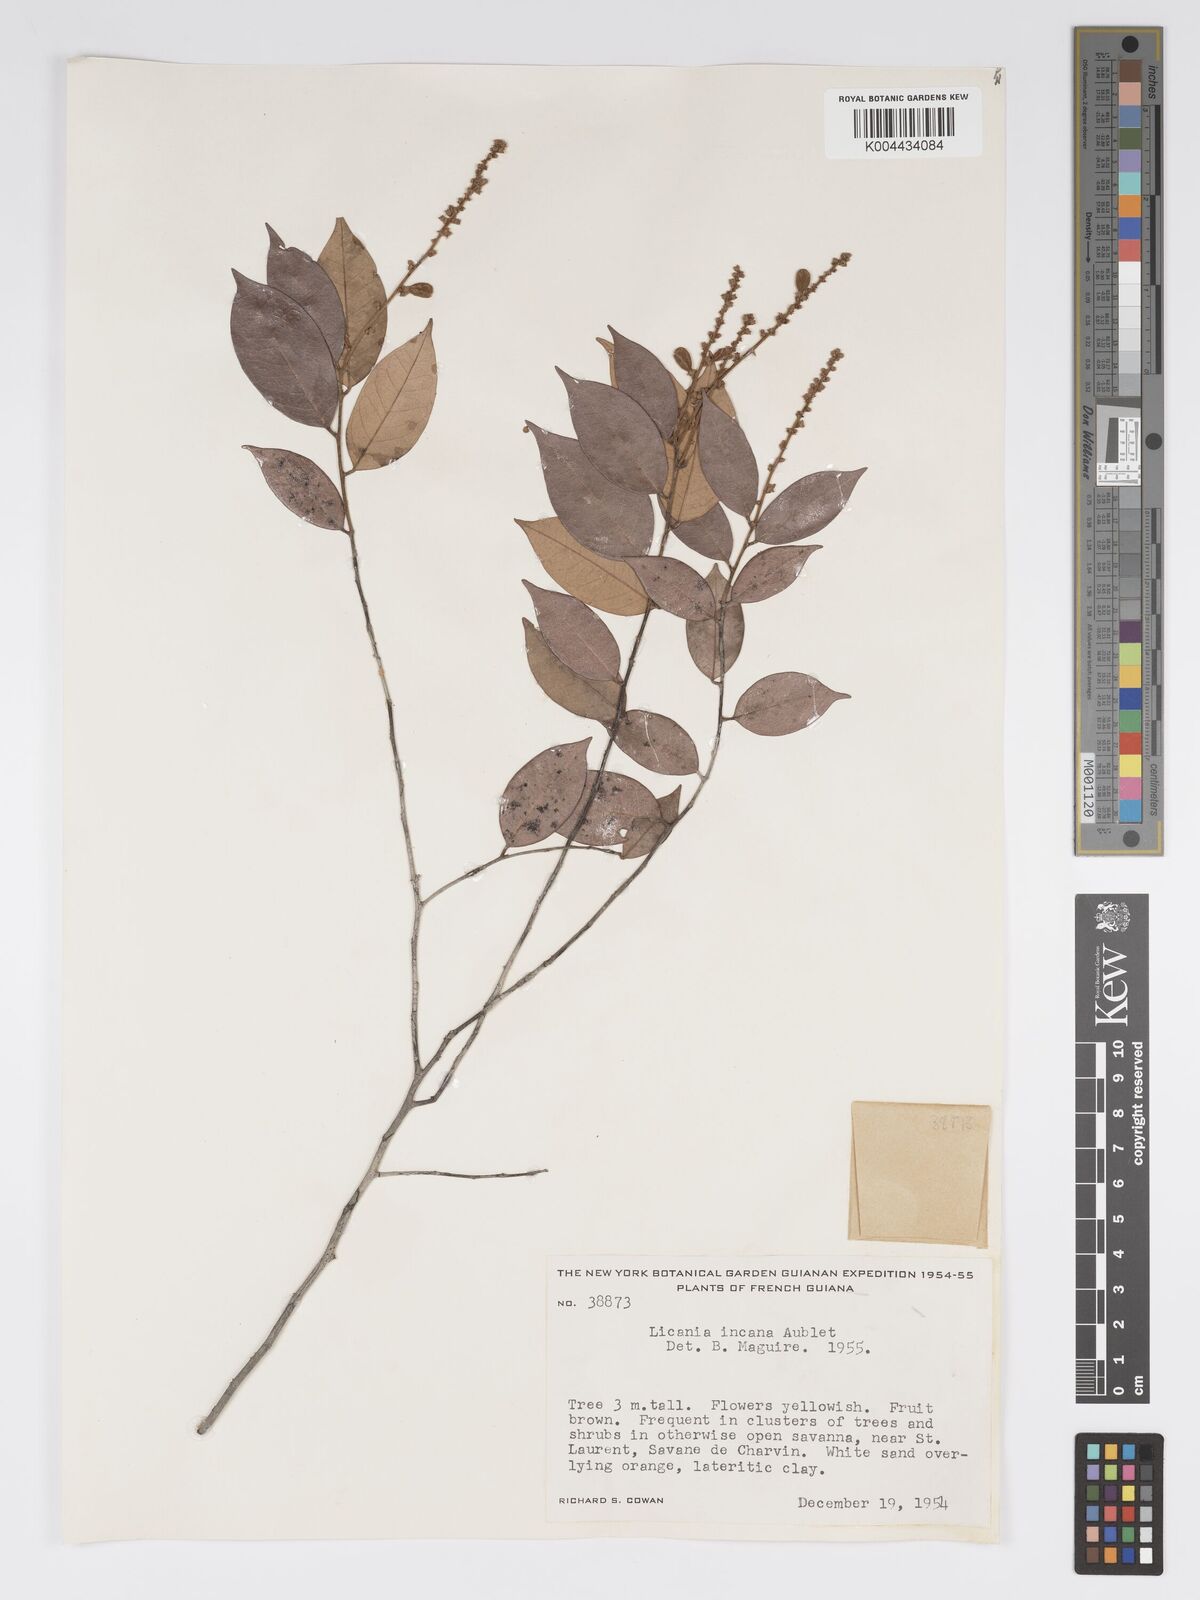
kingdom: Plantae
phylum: Tracheophyta
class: Magnoliopsida
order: Malpighiales
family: Chrysobalanaceae
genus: Licania
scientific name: Licania incana
